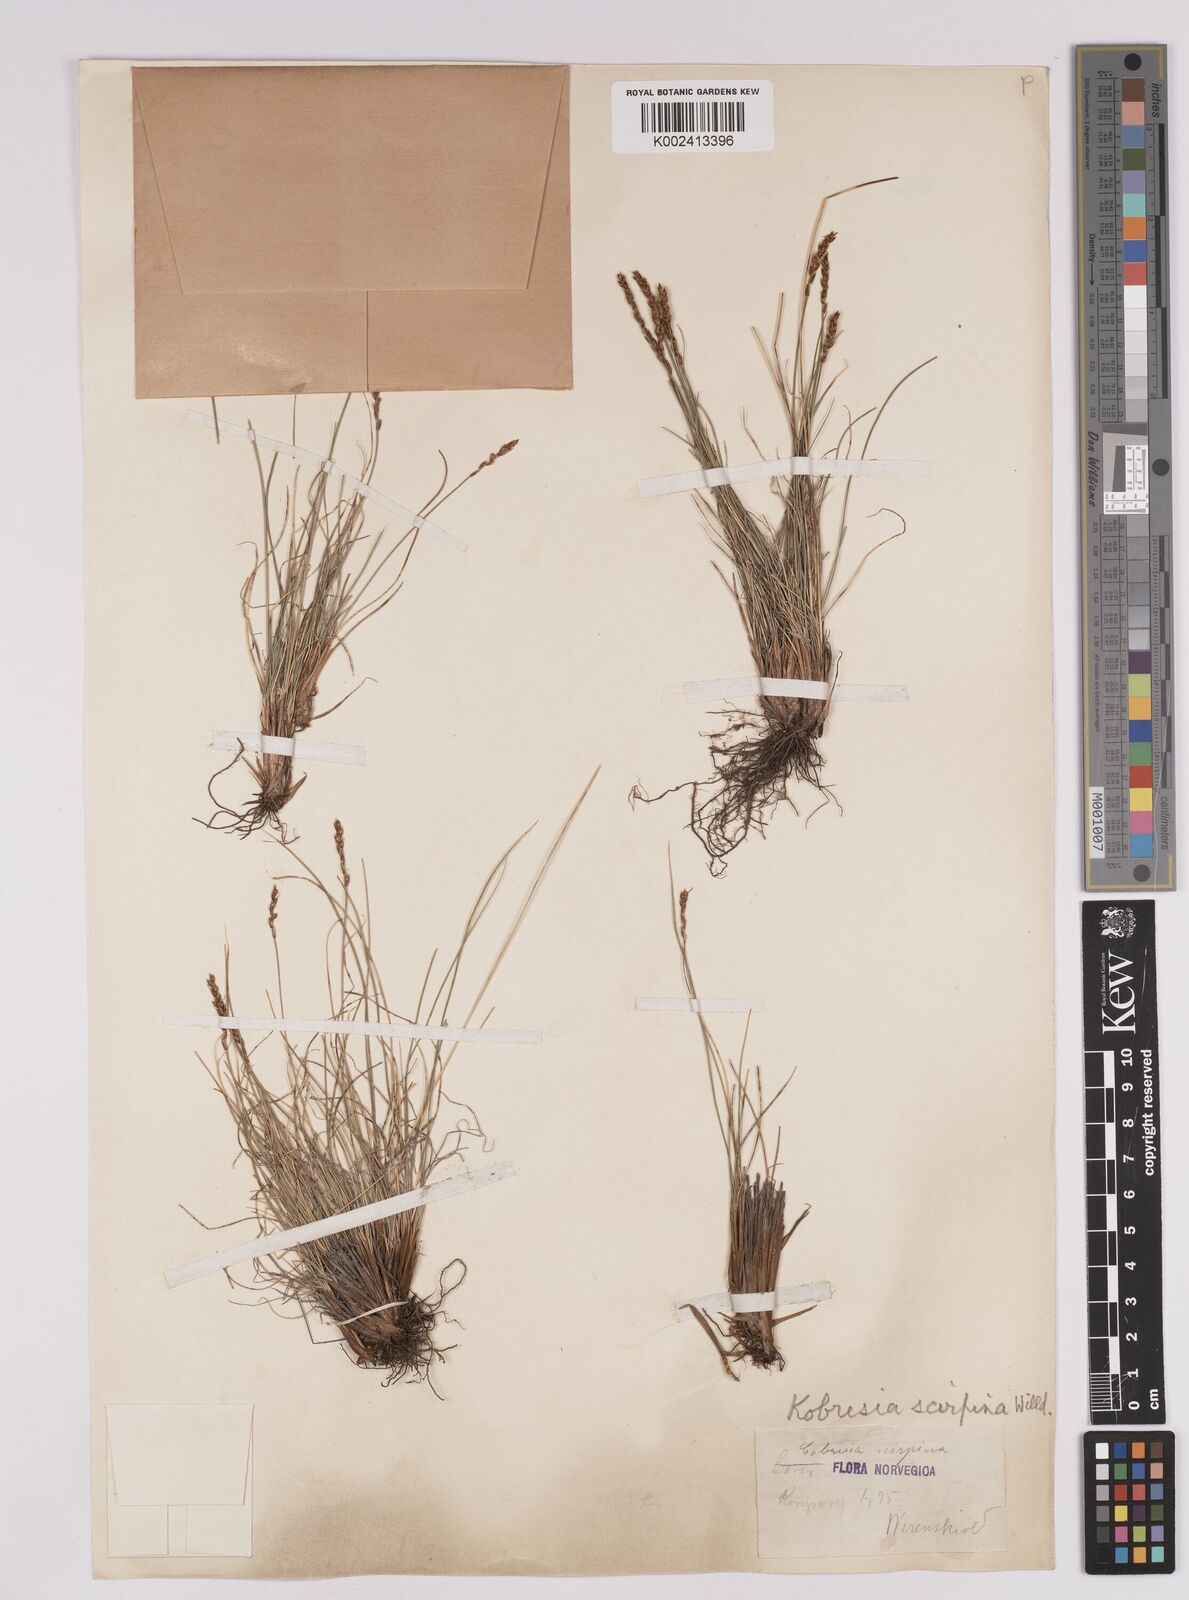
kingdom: Plantae
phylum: Tracheophyta
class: Liliopsida
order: Poales
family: Cyperaceae
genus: Carex
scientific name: Carex myosuroides
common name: Bellard's bog sedge
